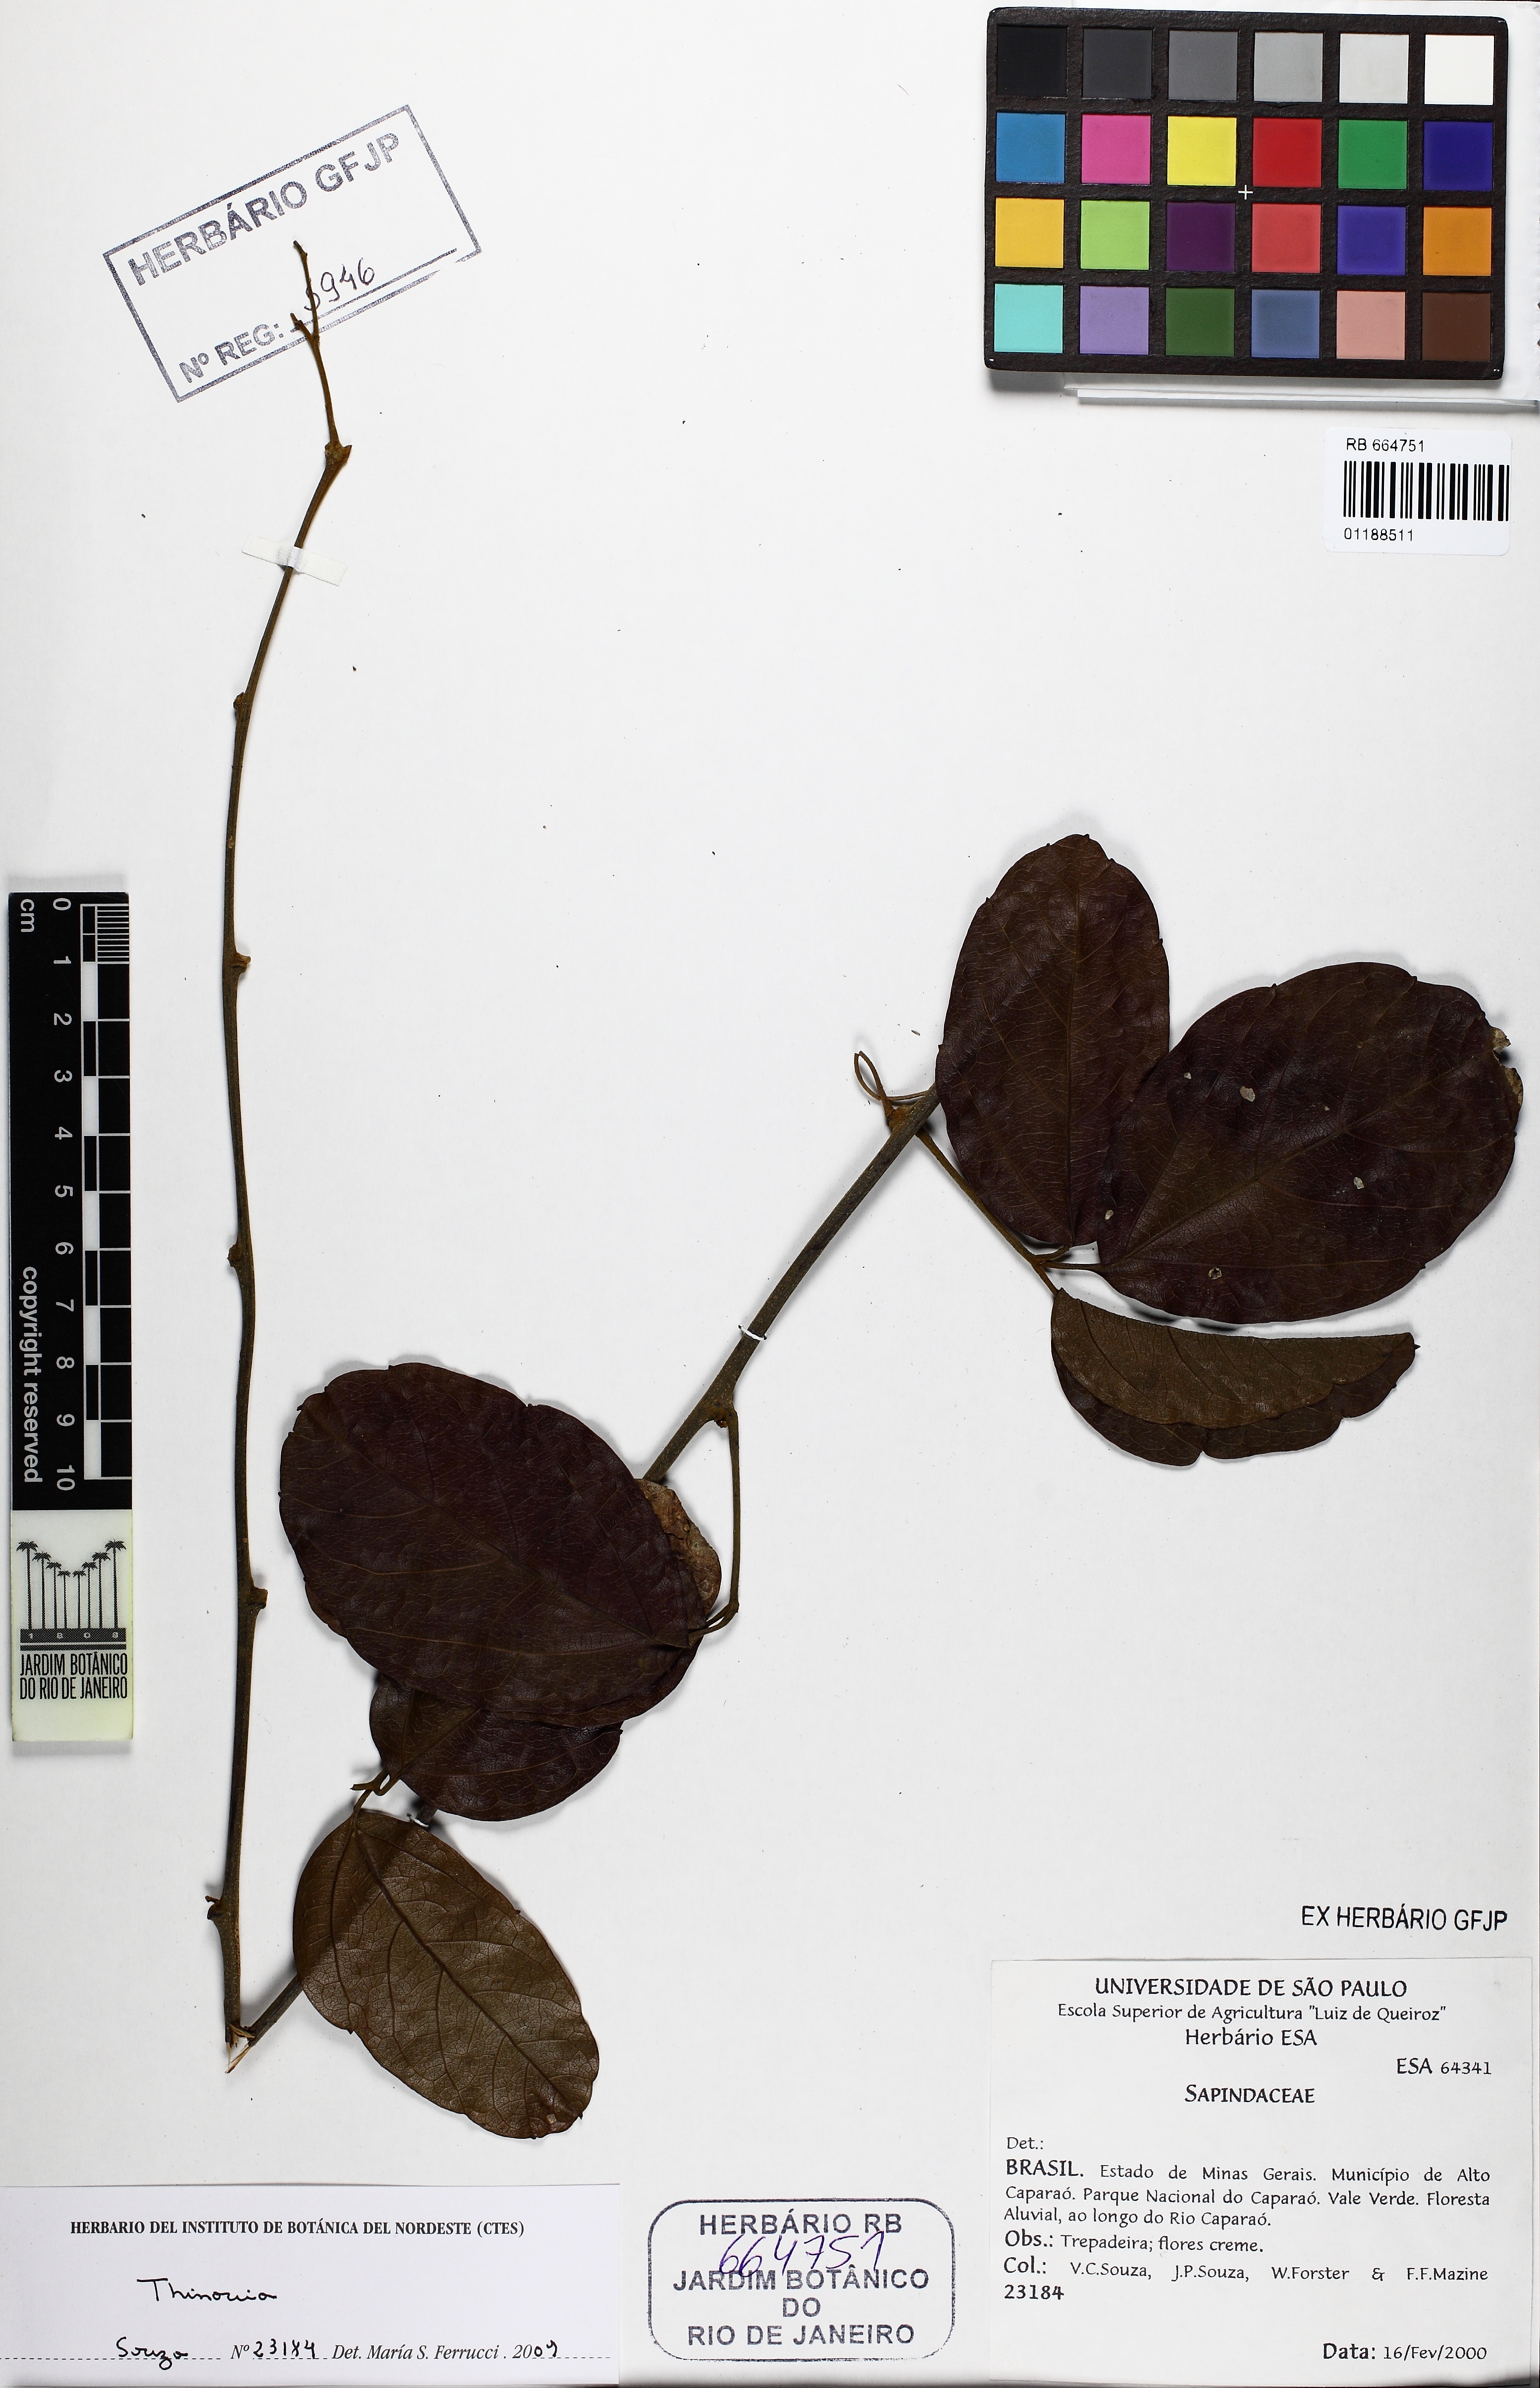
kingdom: Plantae
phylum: Tracheophyta
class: Magnoliopsida
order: Sapindales
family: Sapindaceae
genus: Thinouia
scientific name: Thinouia scandens
